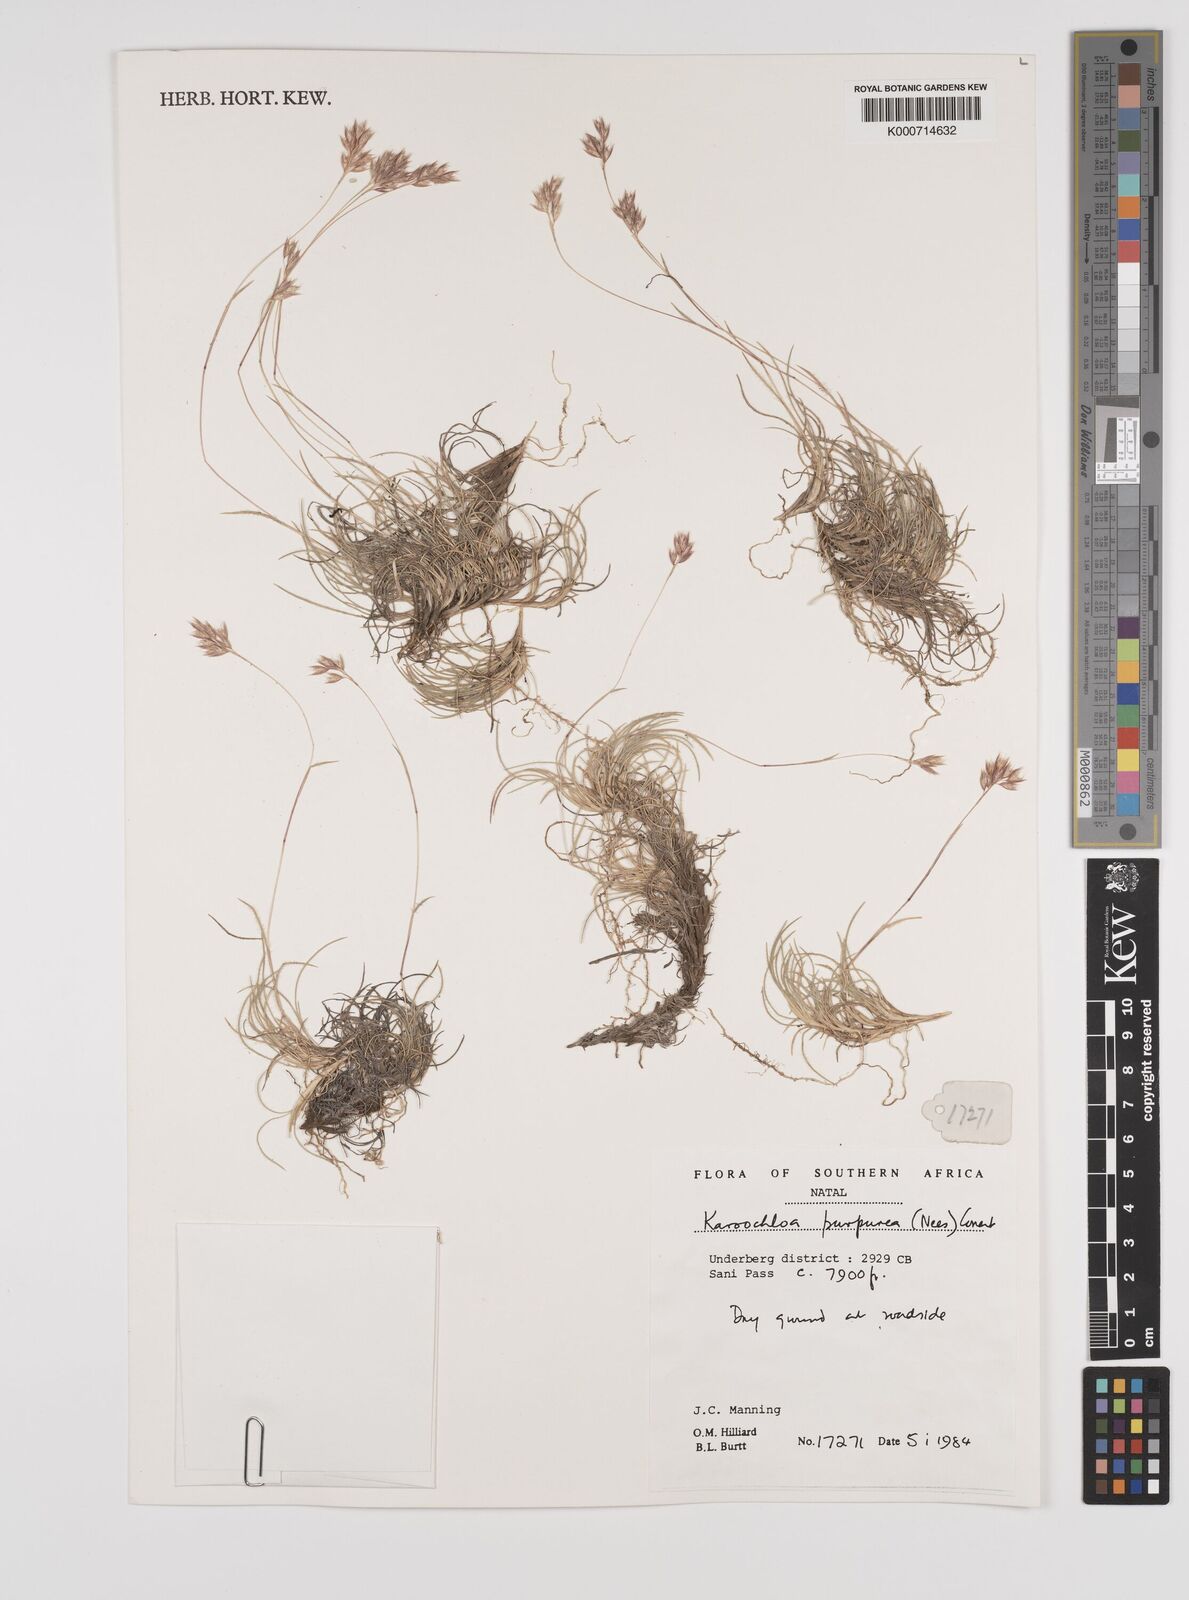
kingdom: Plantae
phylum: Tracheophyta
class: Liliopsida
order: Poales
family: Poaceae
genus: Rytidosperma
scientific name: Rytidosperma
